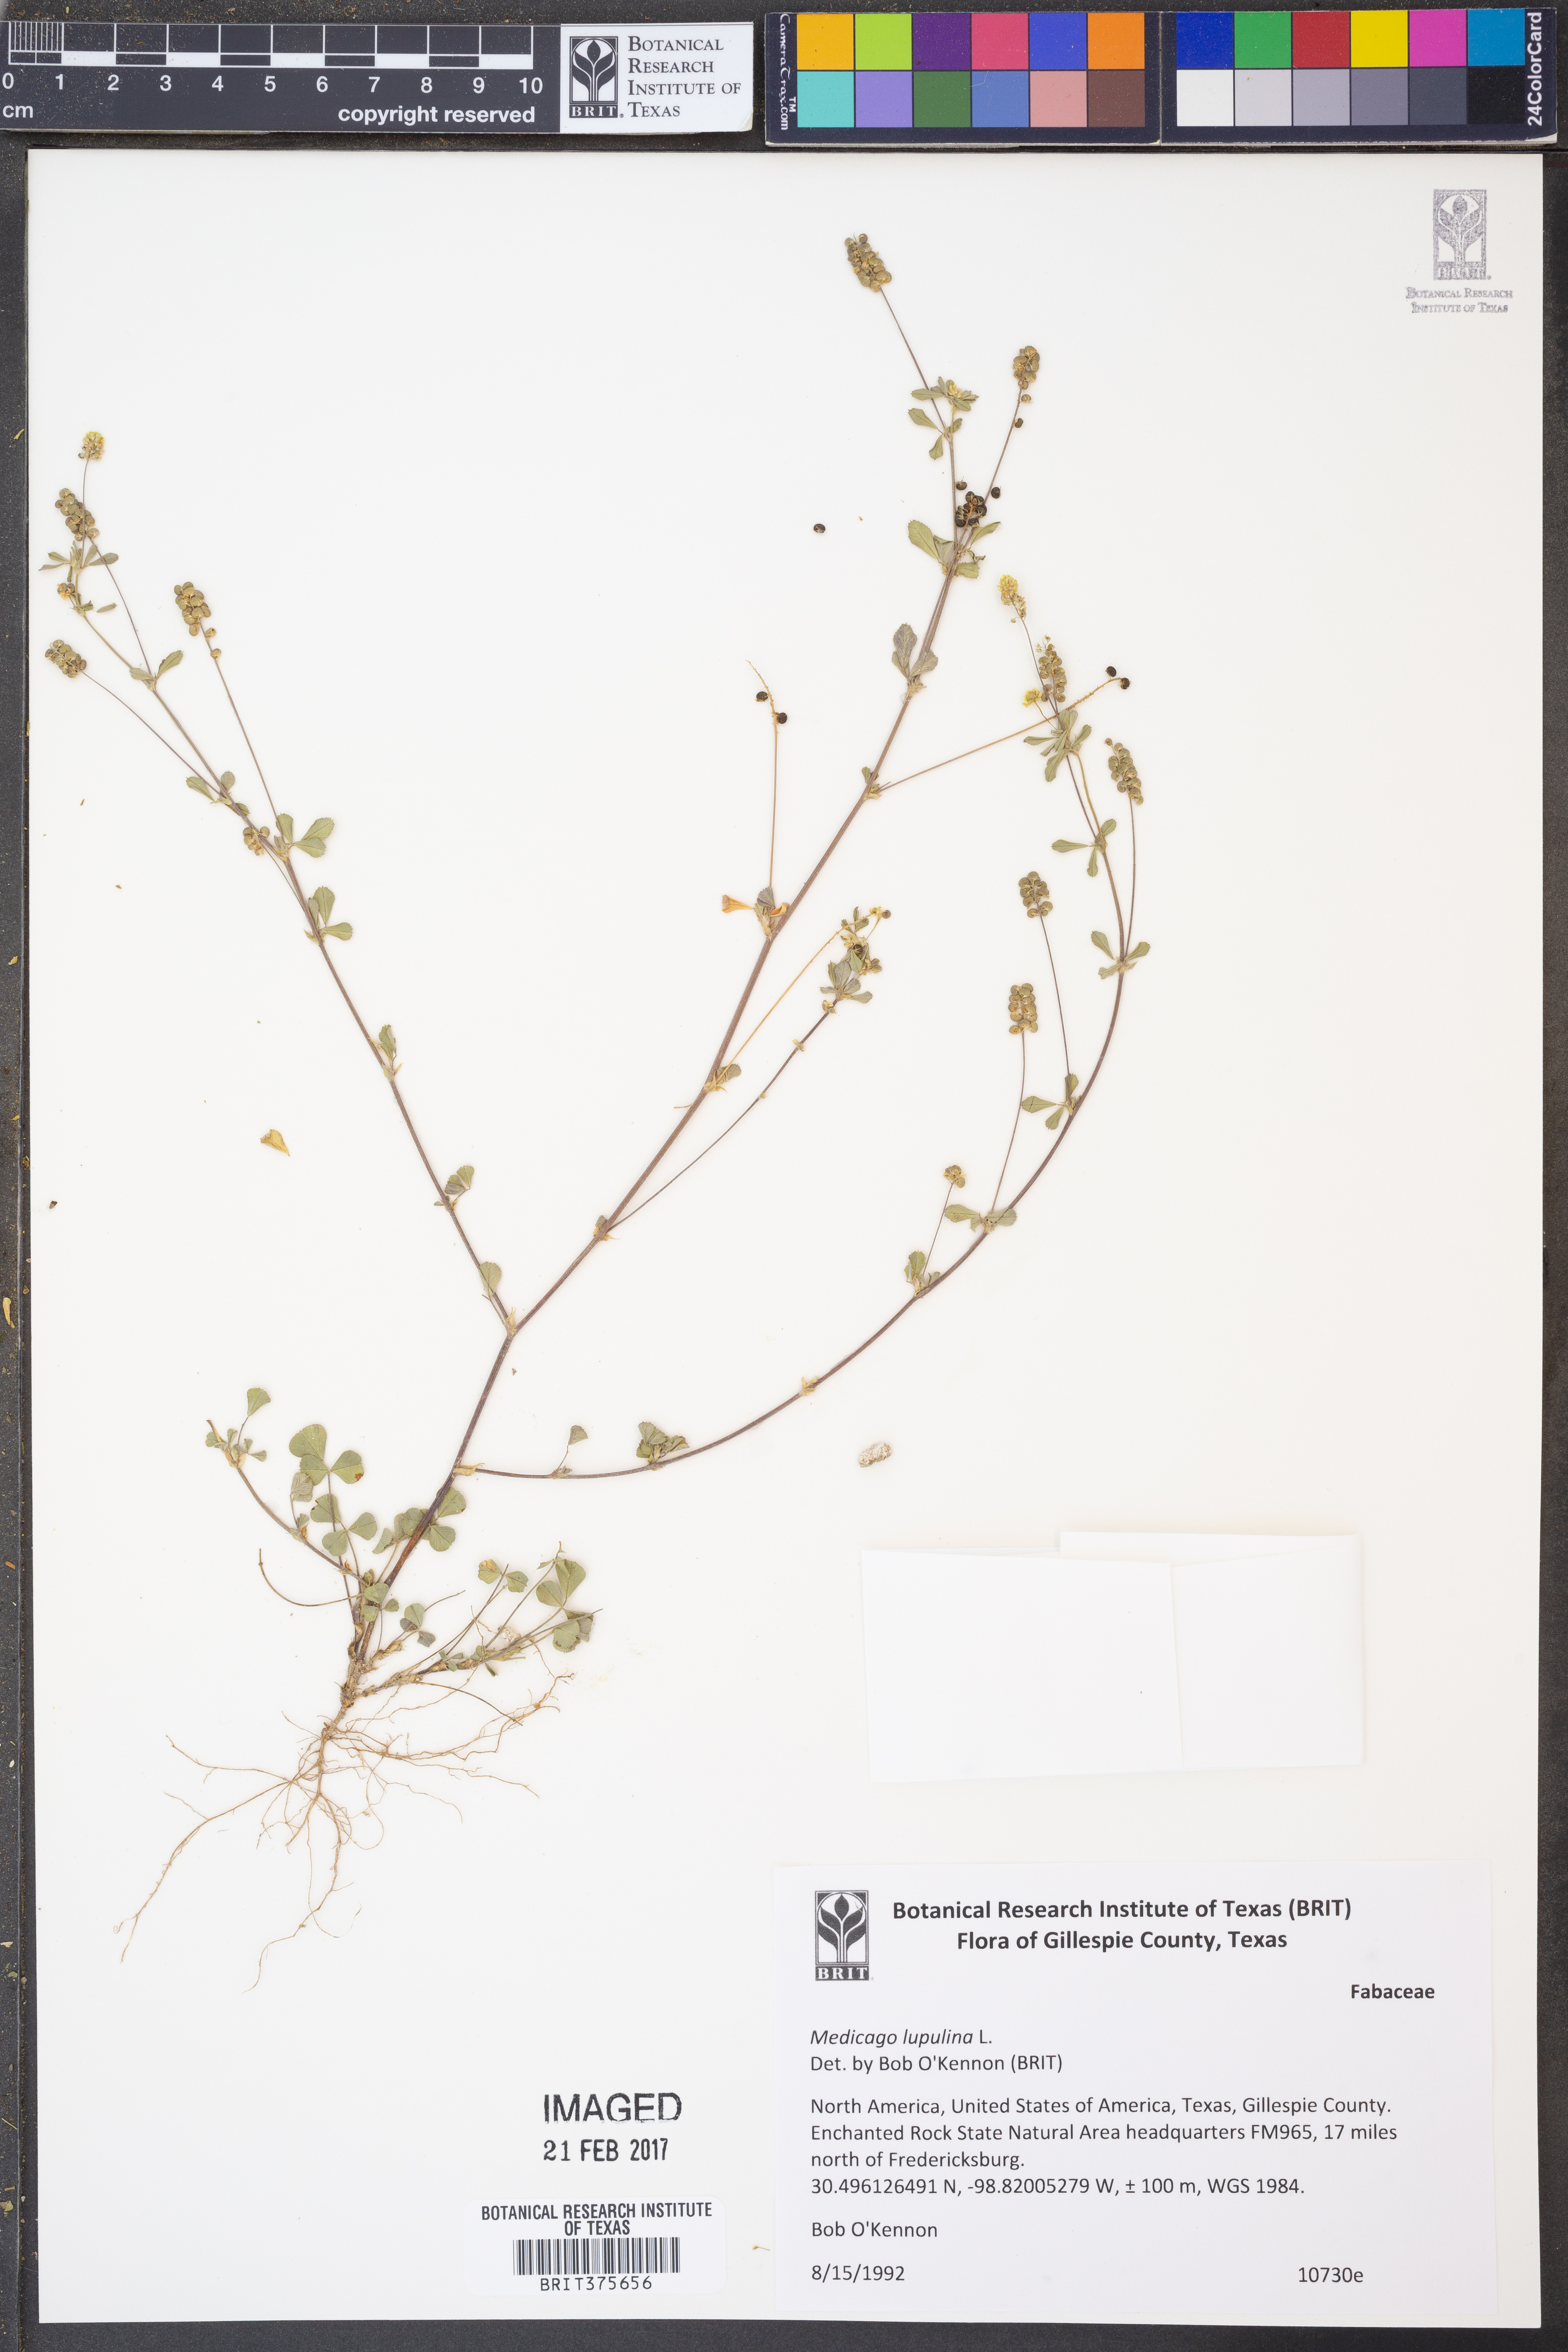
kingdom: Plantae
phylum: Tracheophyta
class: Magnoliopsida
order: Fabales
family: Fabaceae
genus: Medicago
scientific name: Medicago lupulina
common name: Black medick
